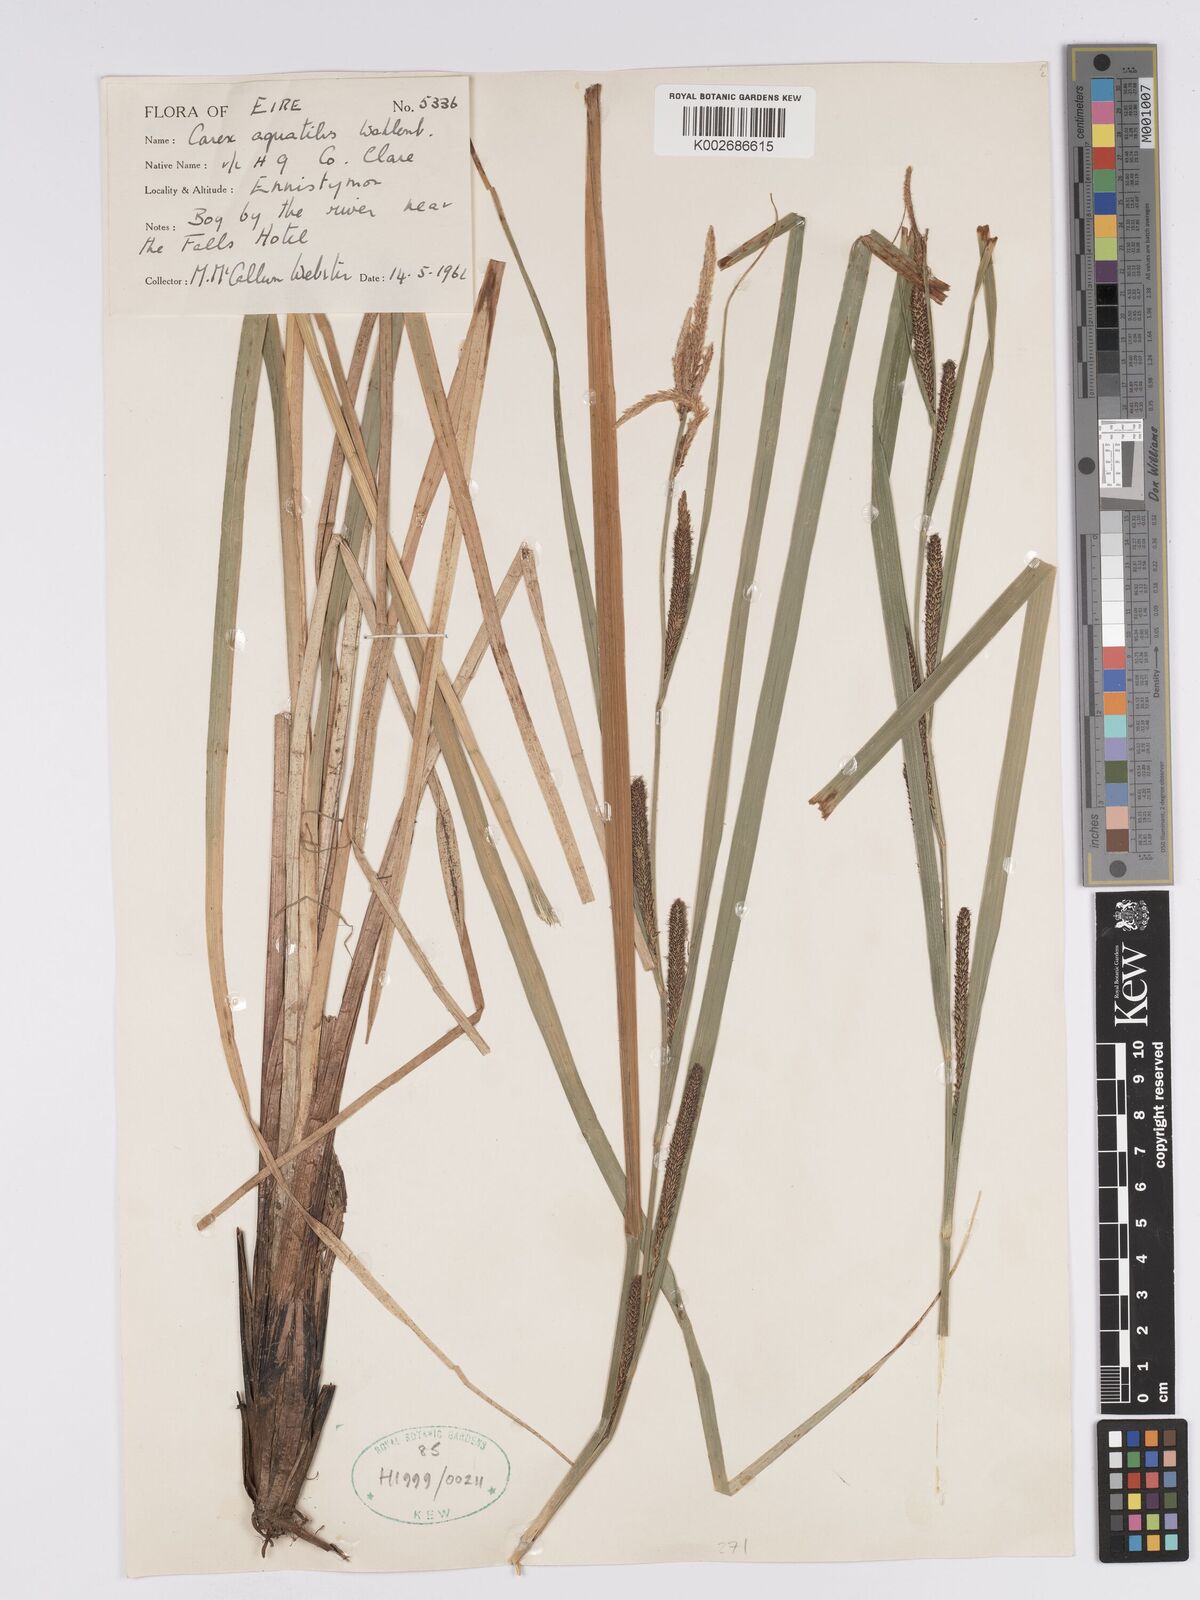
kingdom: Plantae
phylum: Tracheophyta
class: Liliopsida
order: Poales
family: Cyperaceae
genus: Carex
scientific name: Carex aquatilis
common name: Water sedge
